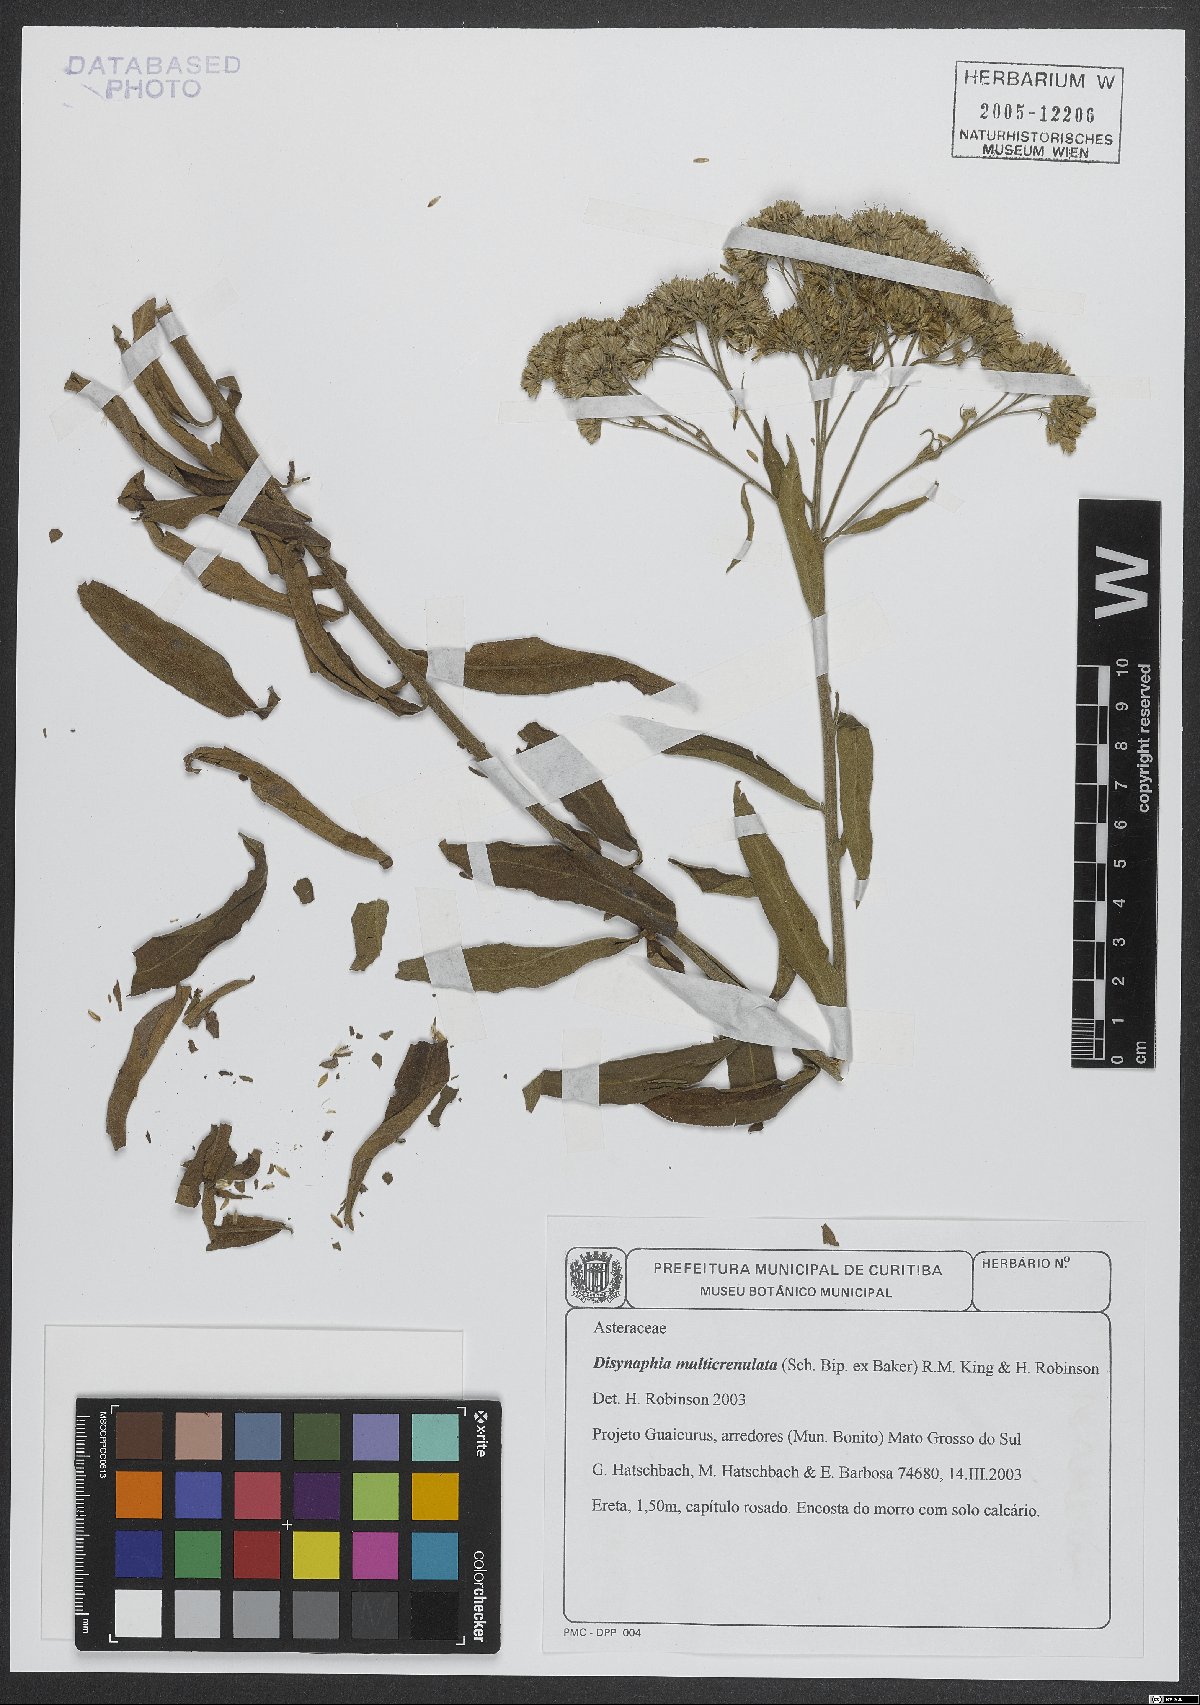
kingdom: Plantae
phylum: Tracheophyta
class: Magnoliopsida
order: Asterales
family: Asteraceae
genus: Disynaphia
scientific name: Disynaphia multicrenulata
